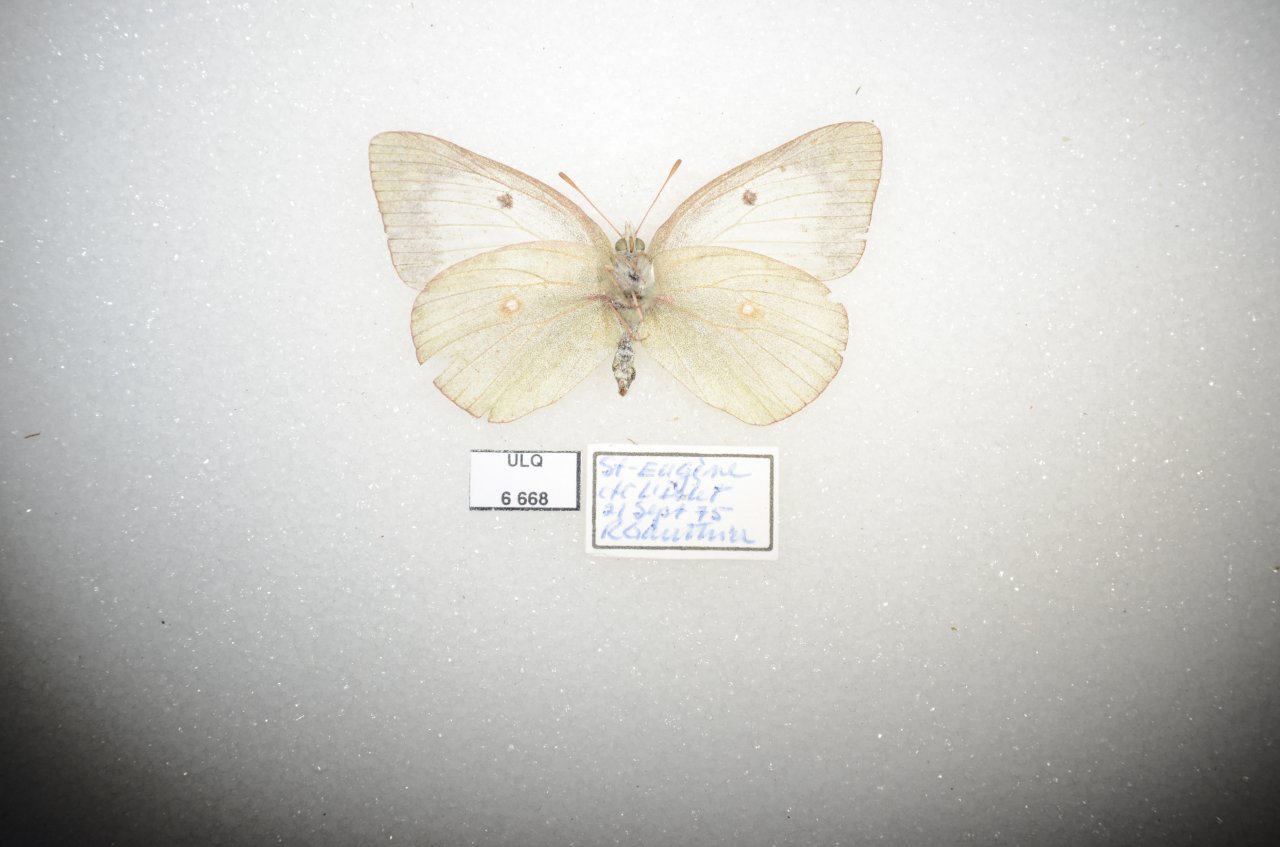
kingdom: Animalia
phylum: Arthropoda
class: Insecta
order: Lepidoptera
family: Pieridae
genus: Colias
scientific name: Colias philodice
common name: Clouded Sulphur
